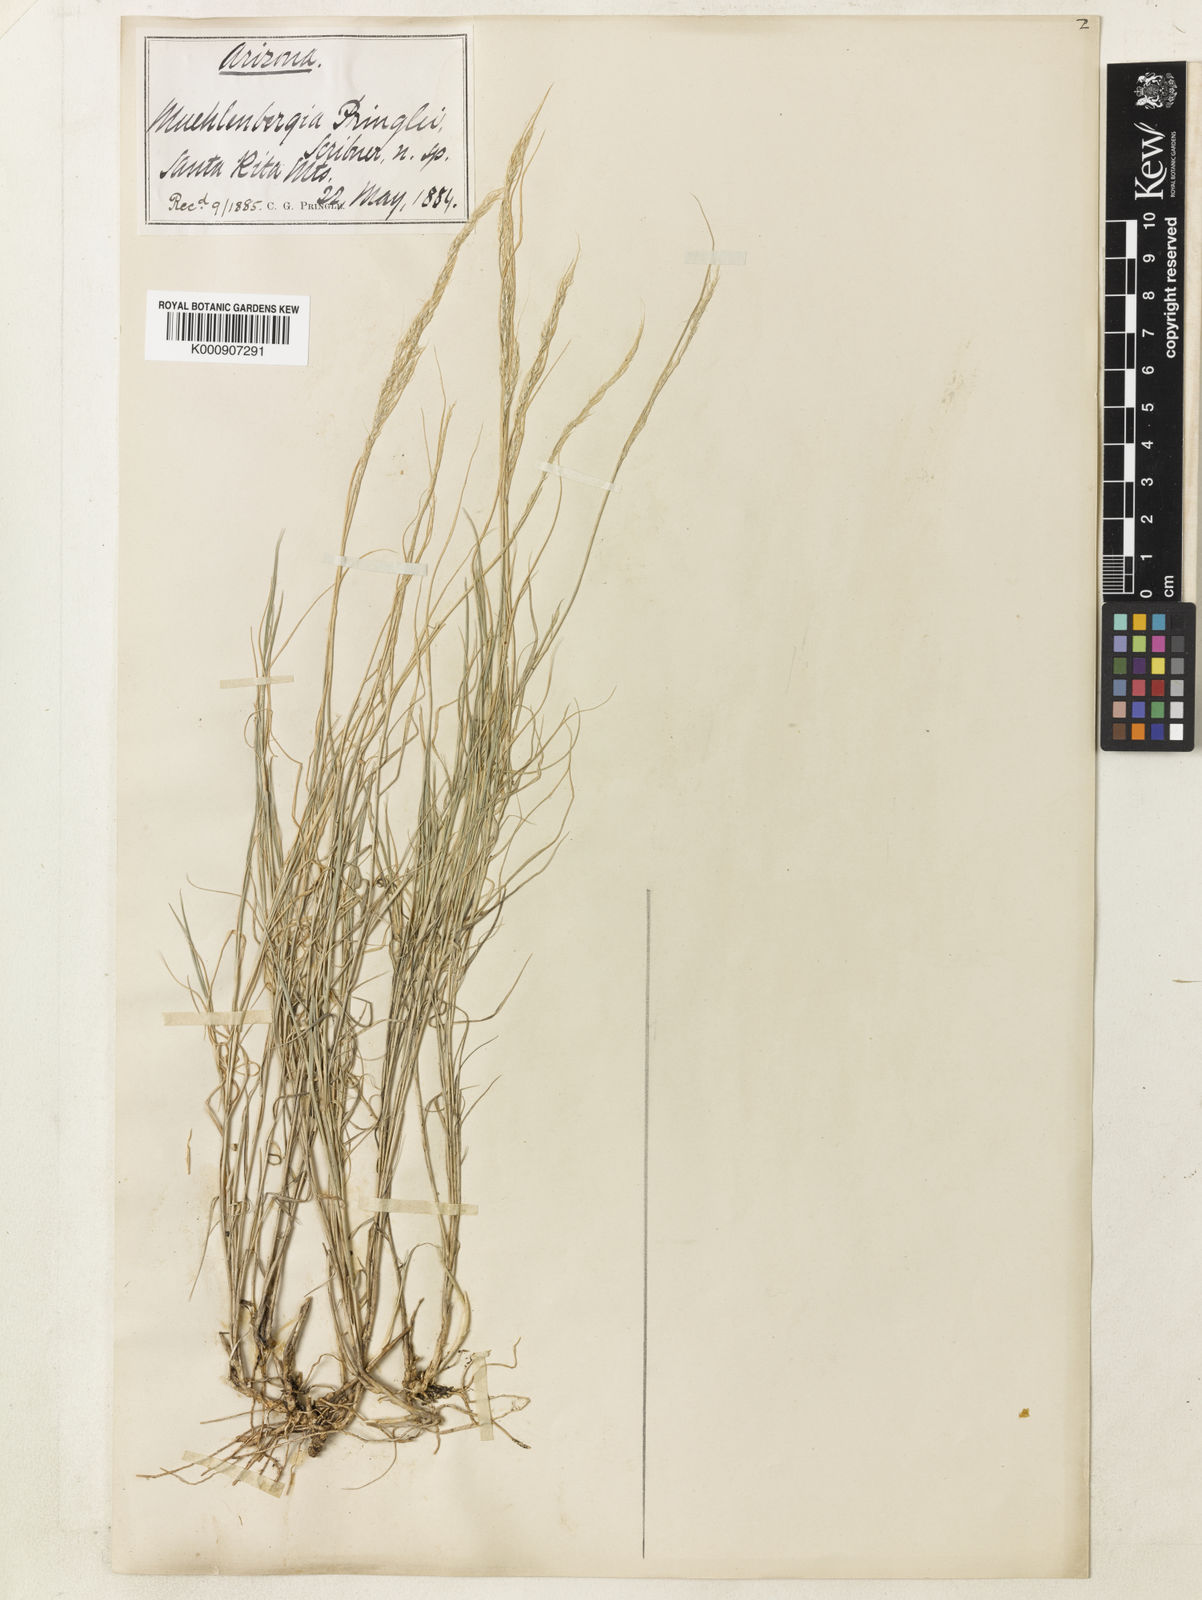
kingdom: Plantae
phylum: Tracheophyta
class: Liliopsida
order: Poales
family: Poaceae
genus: Muhlenbergia
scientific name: Muhlenbergia pauciflora
